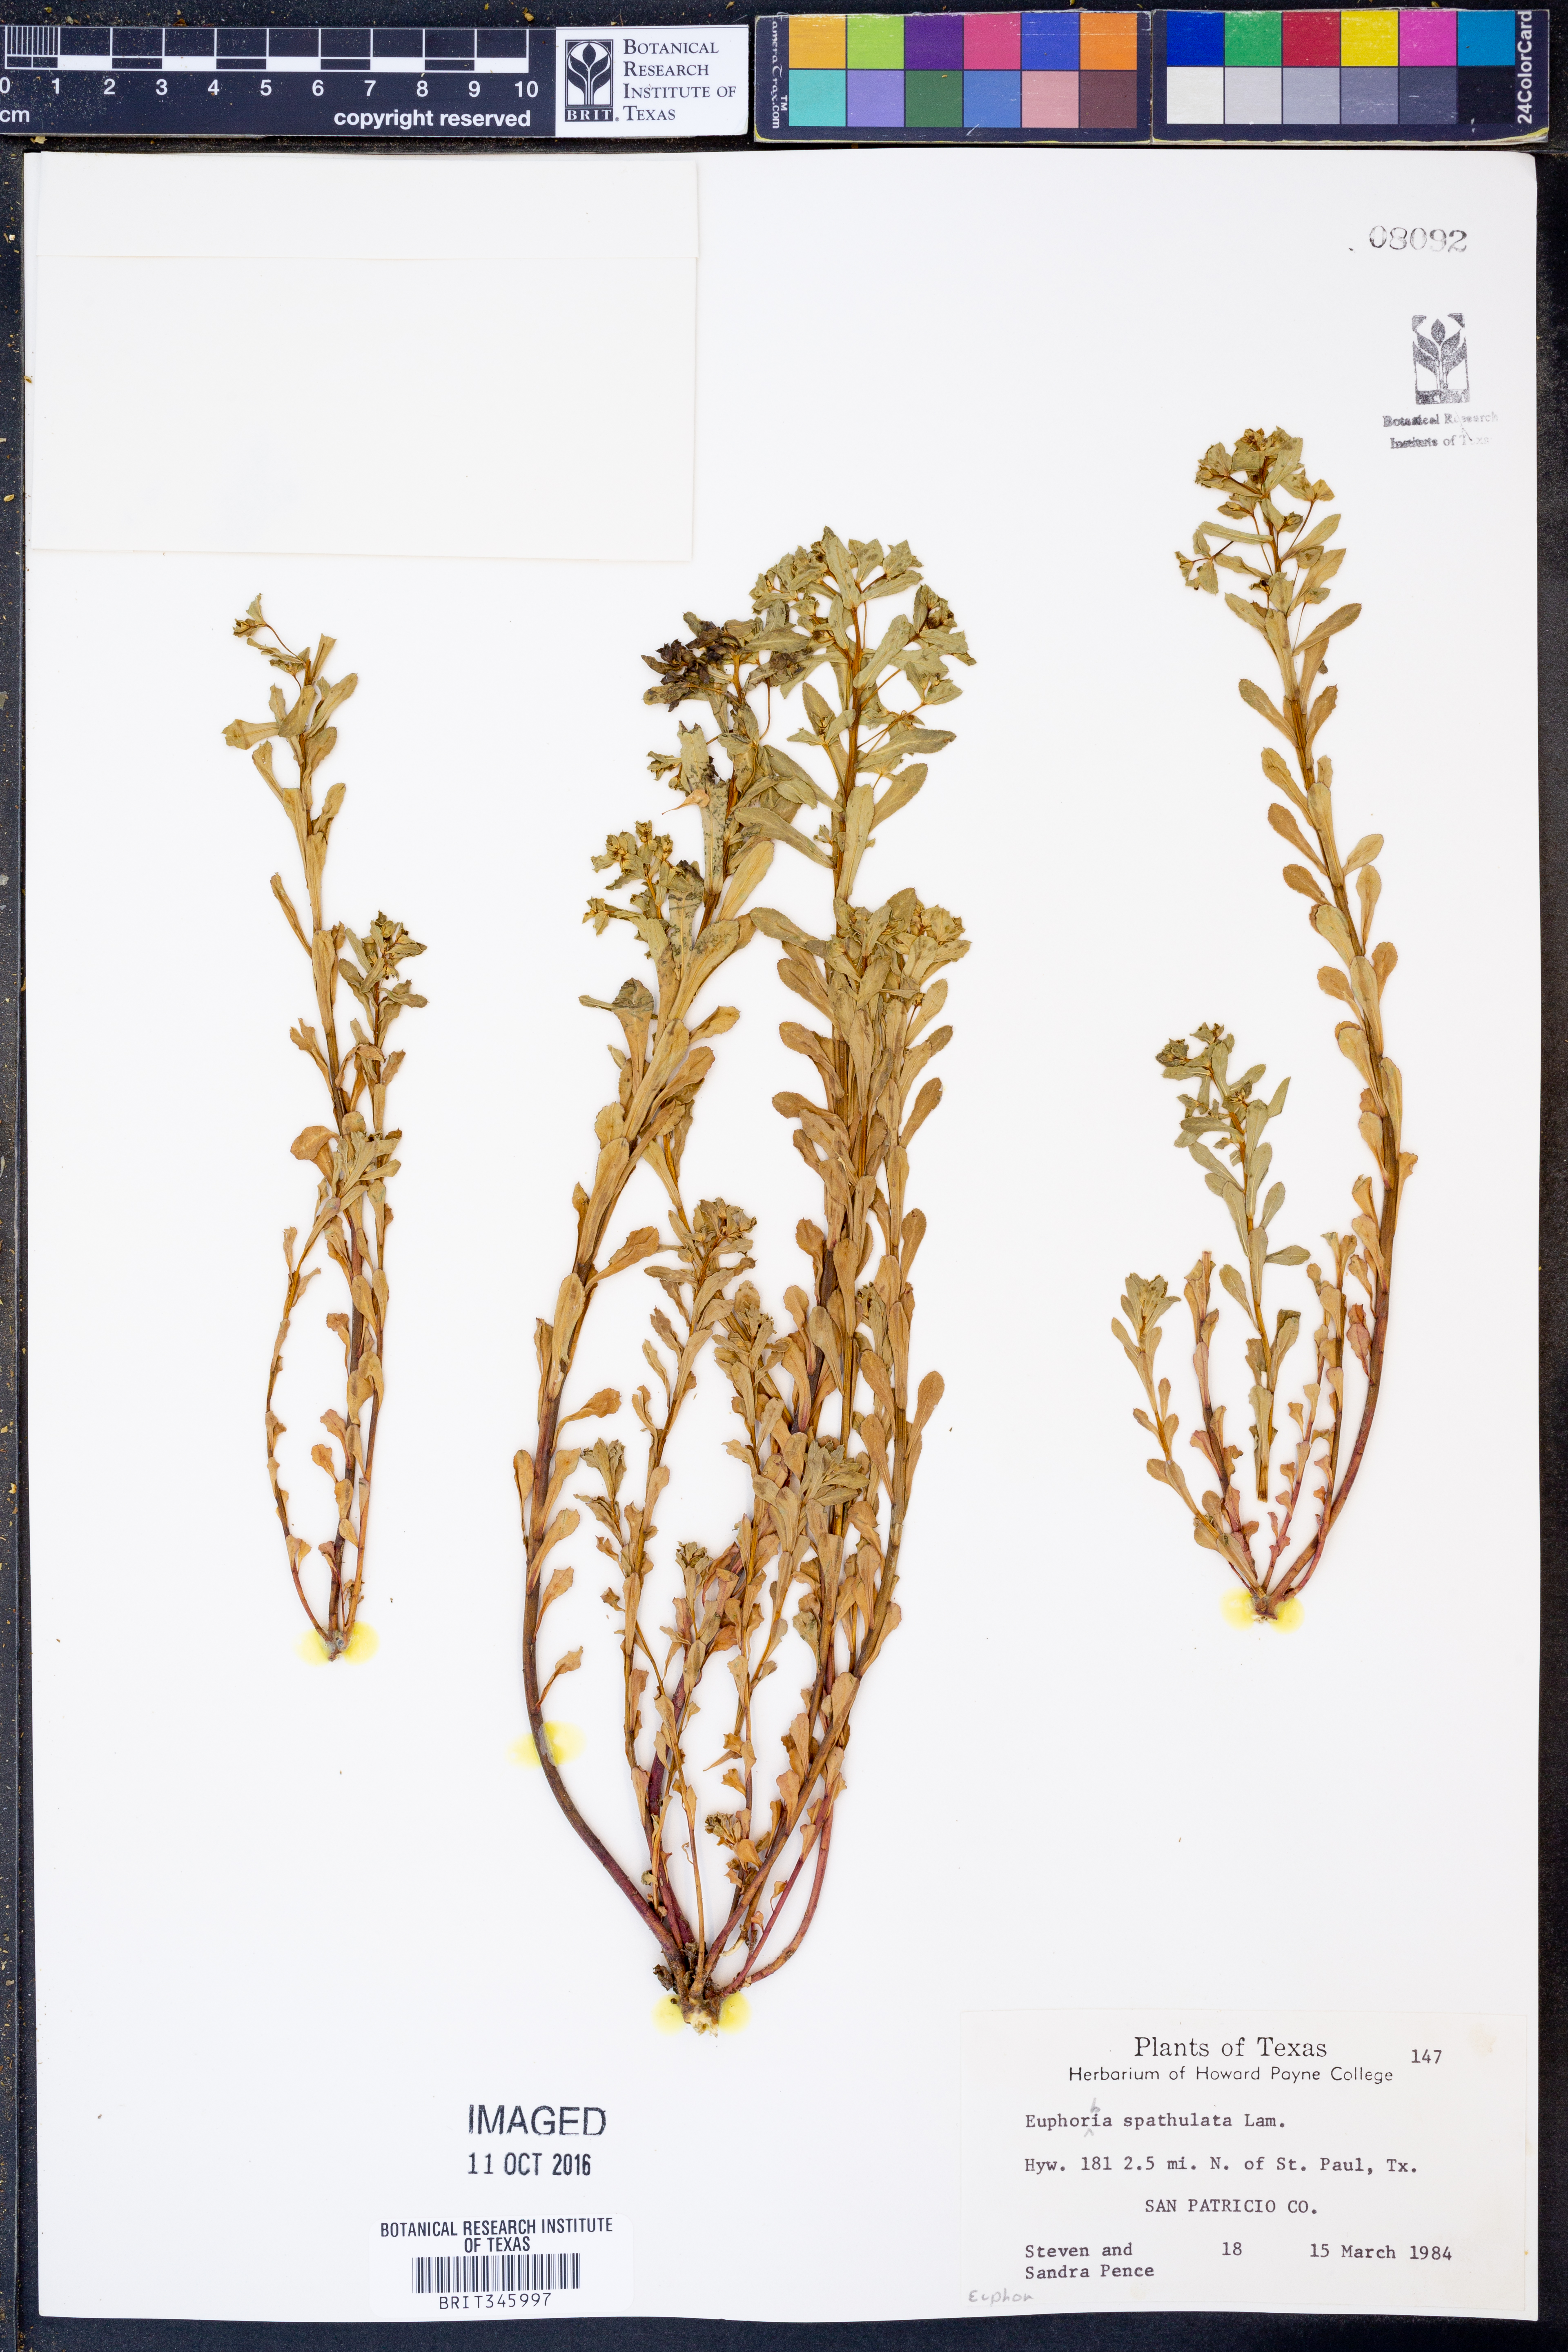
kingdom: Plantae
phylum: Tracheophyta
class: Magnoliopsida
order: Malpighiales
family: Euphorbiaceae
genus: Euphorbia
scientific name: Euphorbia spathulata
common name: Blunt spurge
